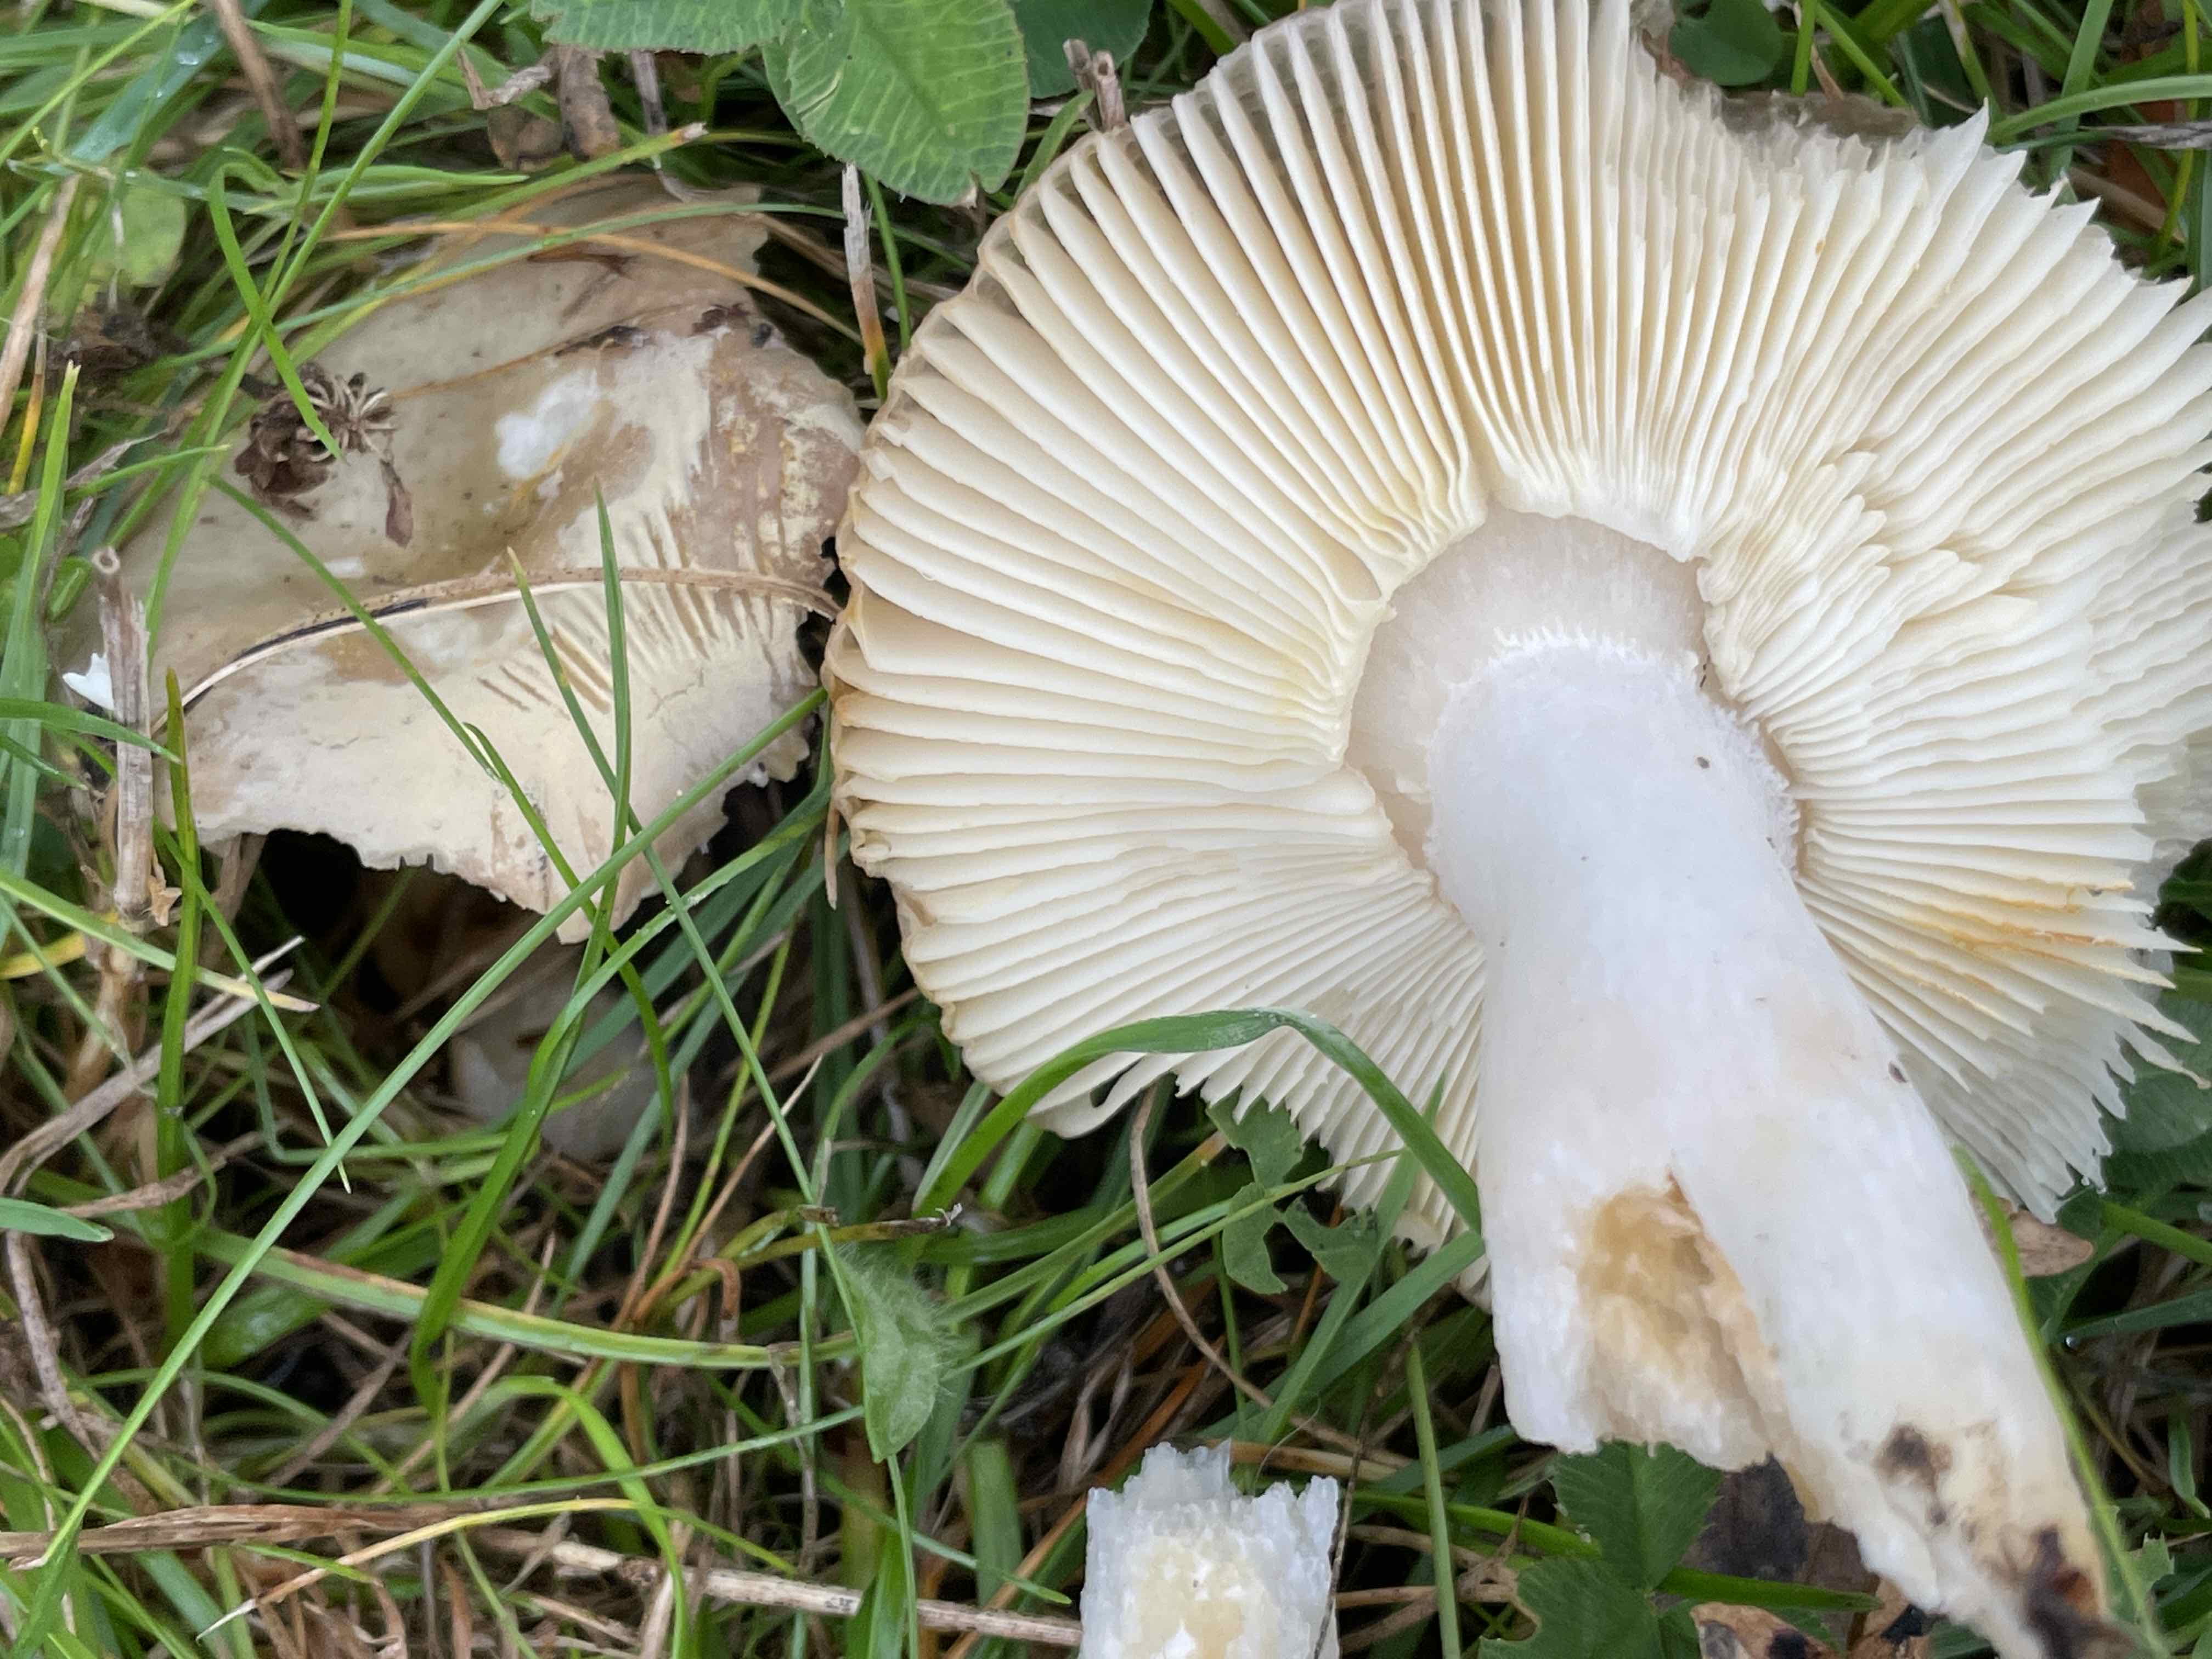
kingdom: Fungi
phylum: Basidiomycota
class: Agaricomycetes
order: Russulales
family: Russulaceae
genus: Russula
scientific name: Russula depallens
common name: falmende skørhat
